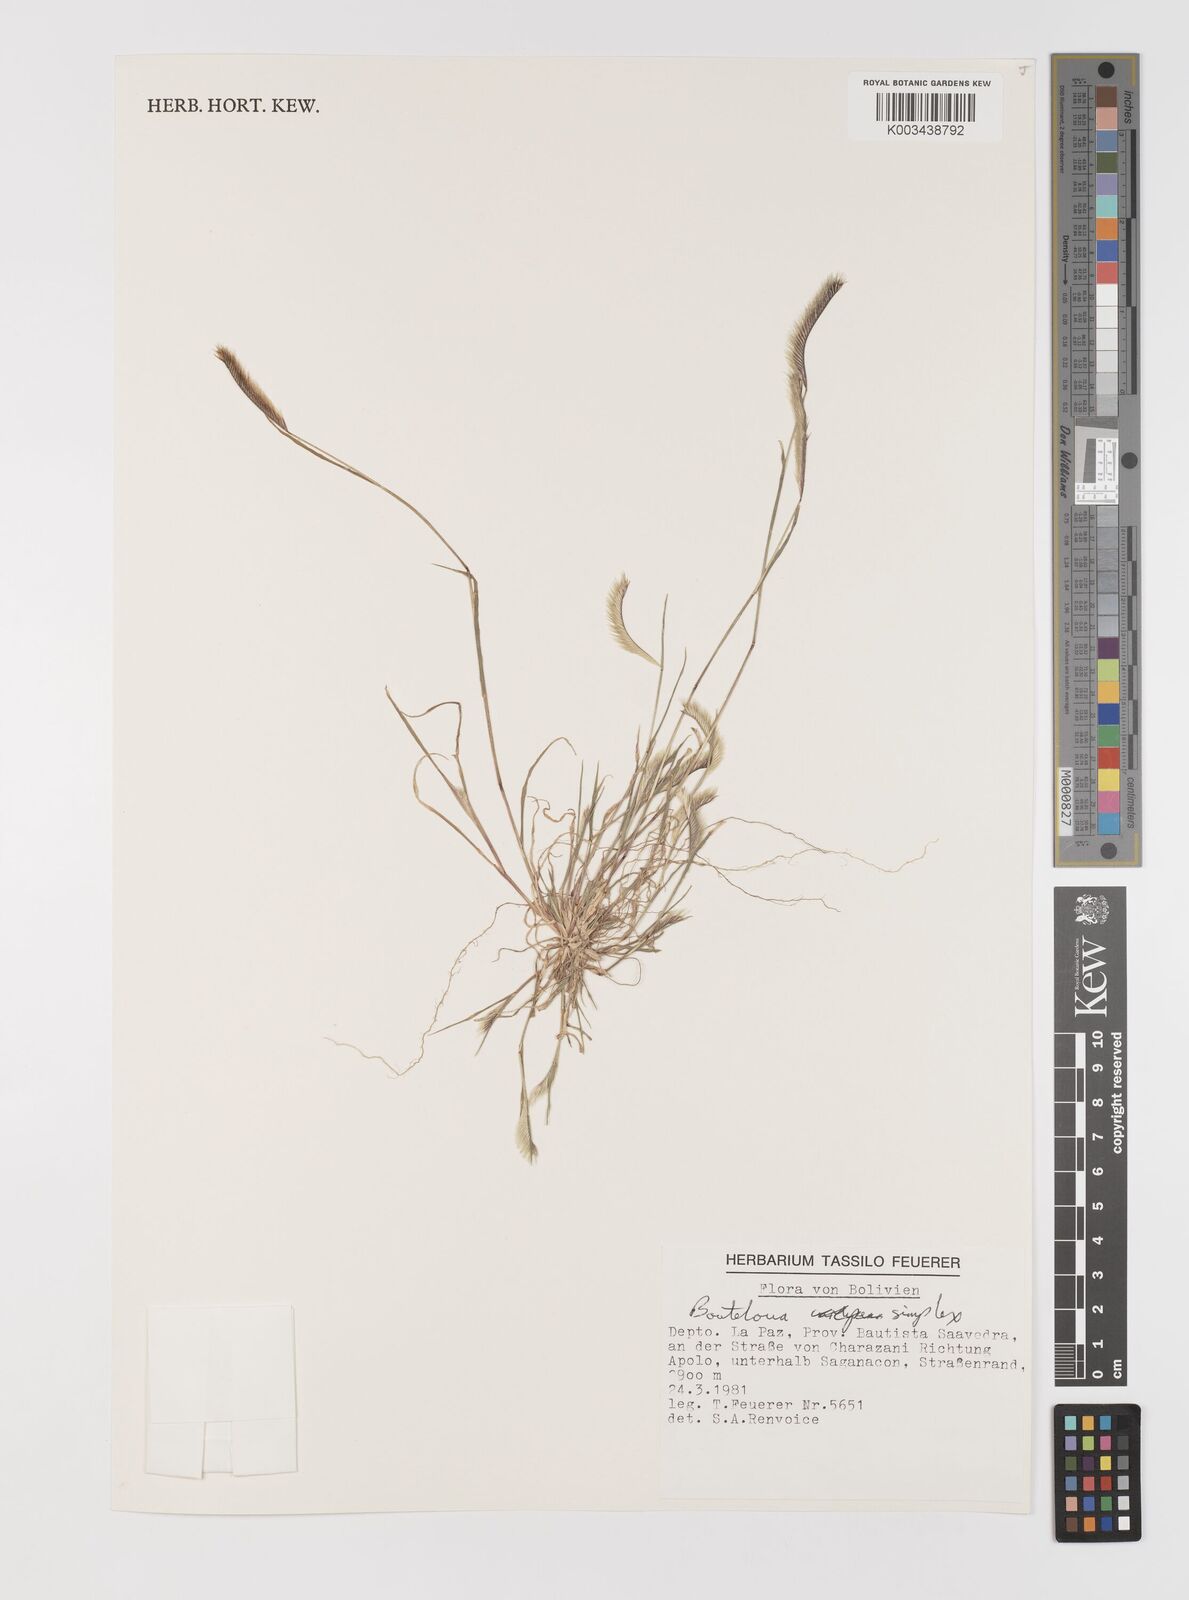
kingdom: Plantae
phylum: Tracheophyta
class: Liliopsida
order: Poales
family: Poaceae
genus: Bouteloua
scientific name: Bouteloua simplex
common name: Mat grama
